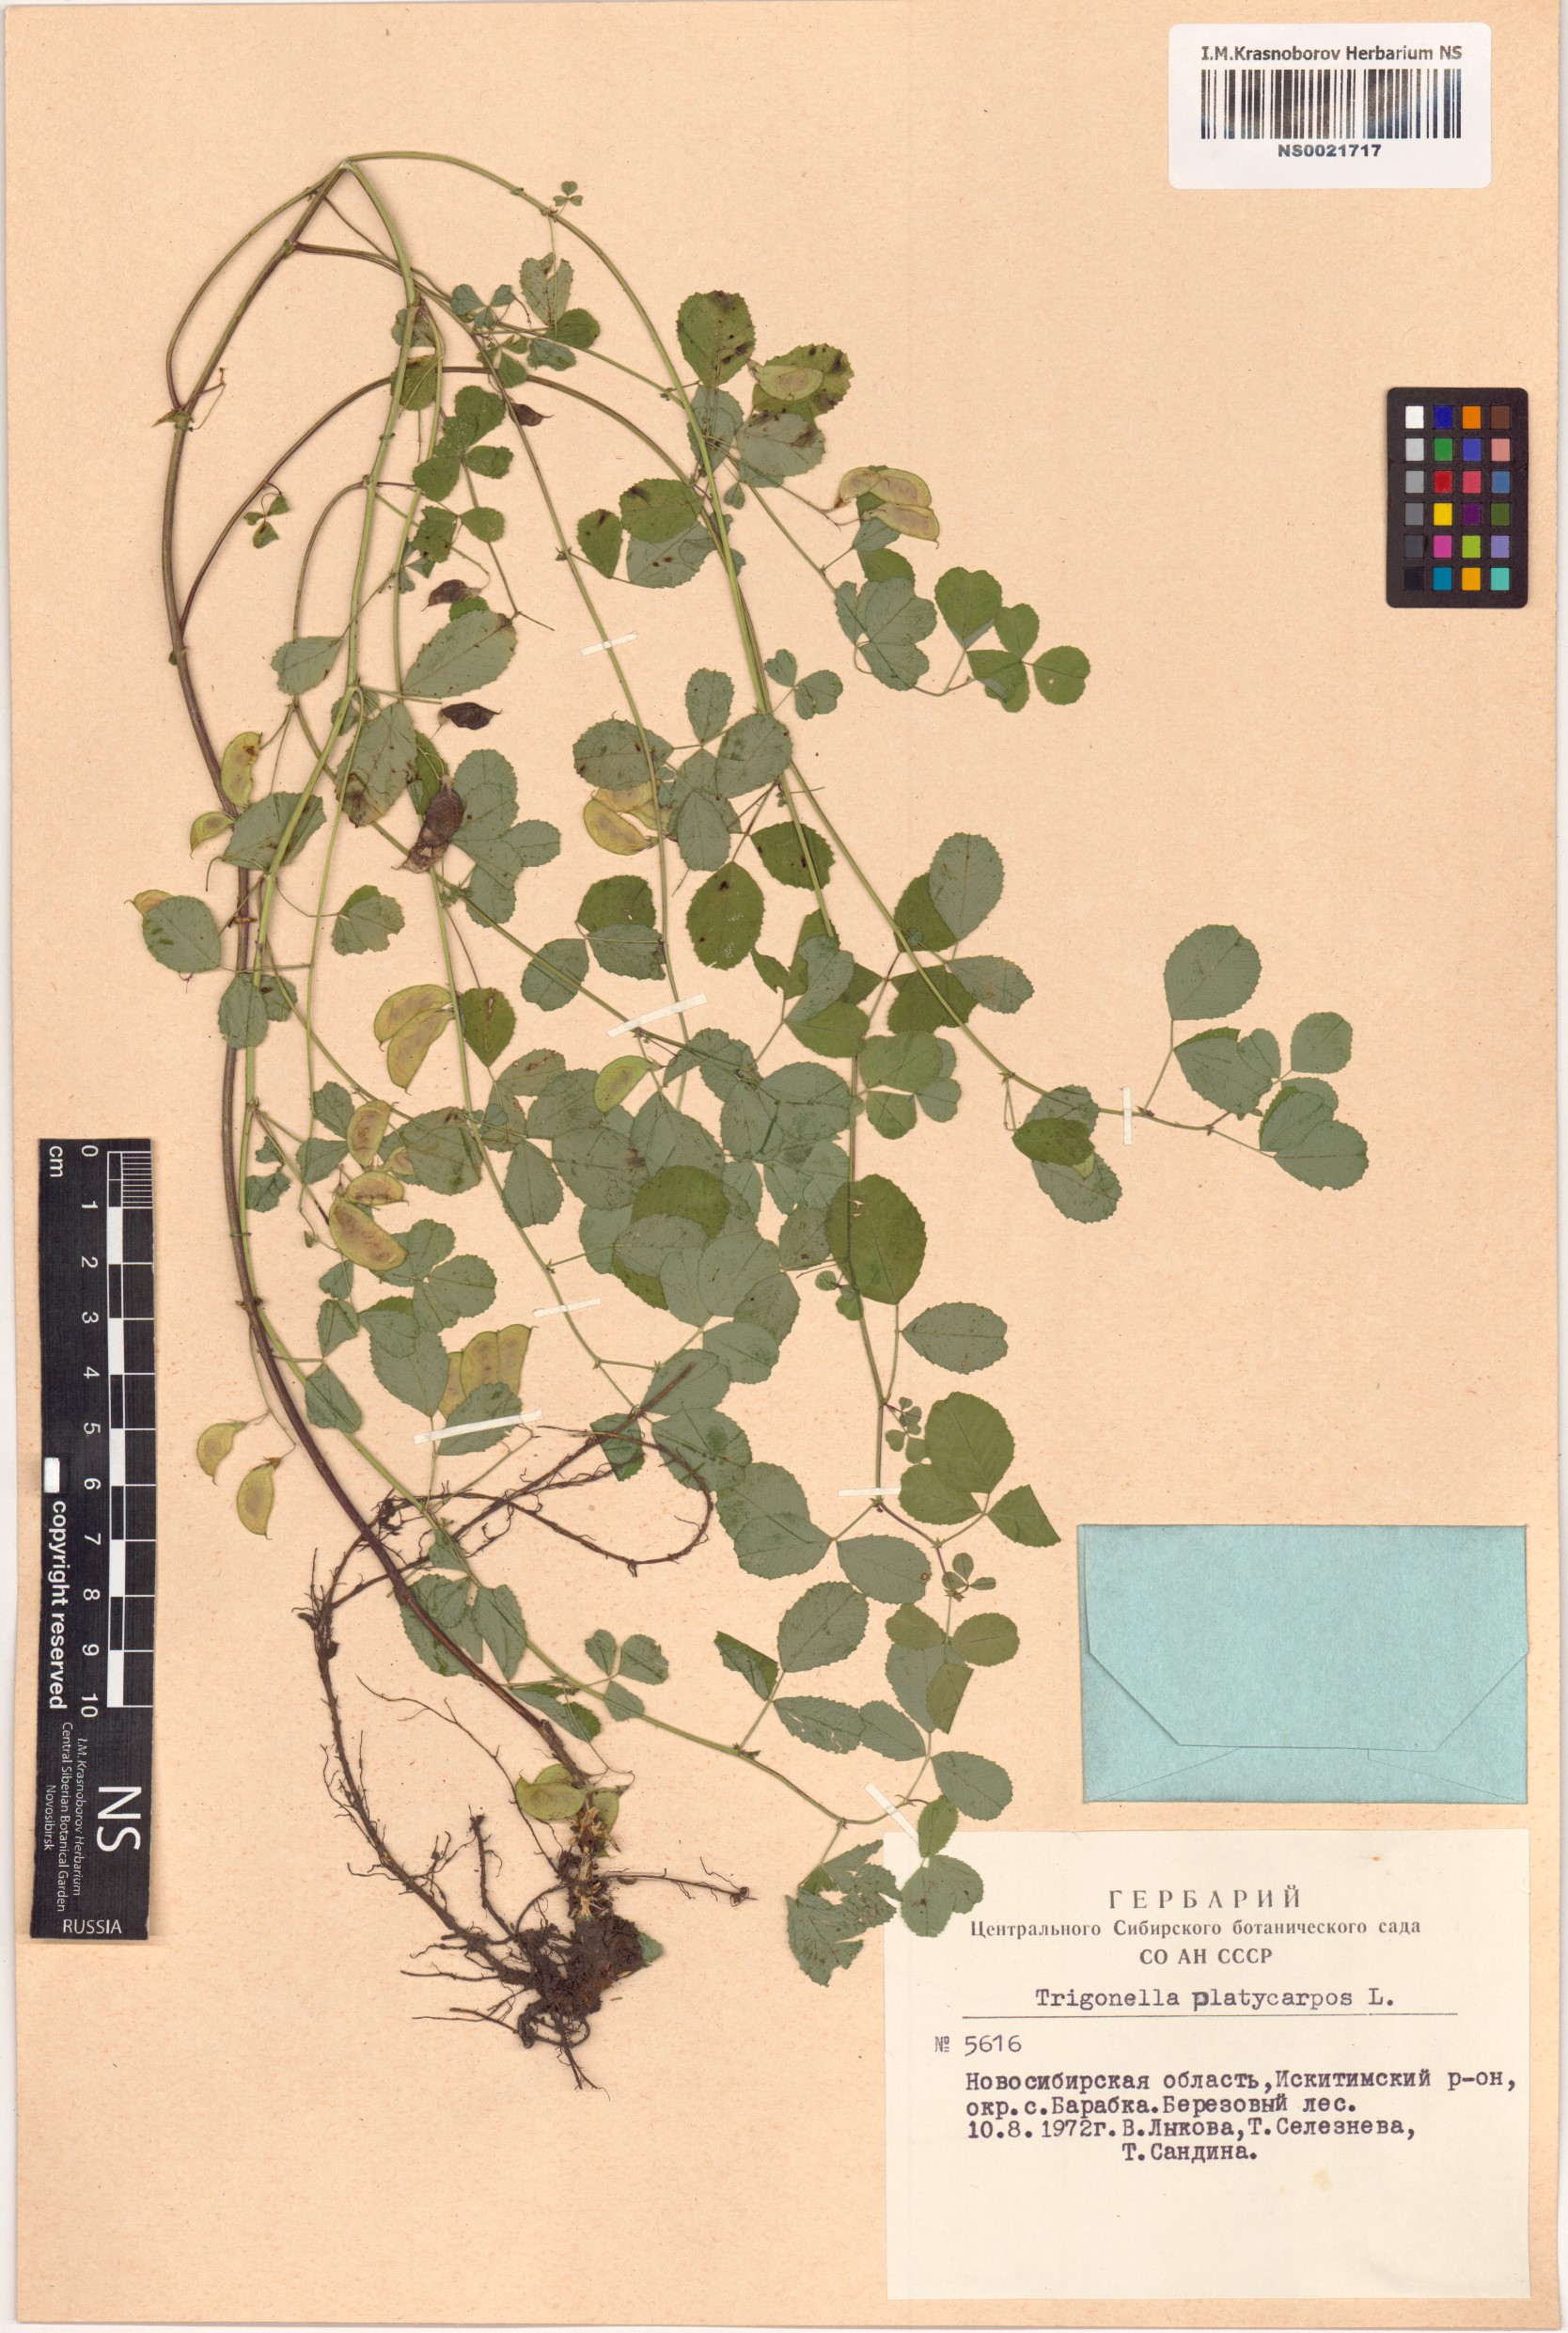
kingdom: Plantae
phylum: Tracheophyta
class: Magnoliopsida
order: Fabales
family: Fabaceae
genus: Medicago
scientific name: Medicago platycarpos
